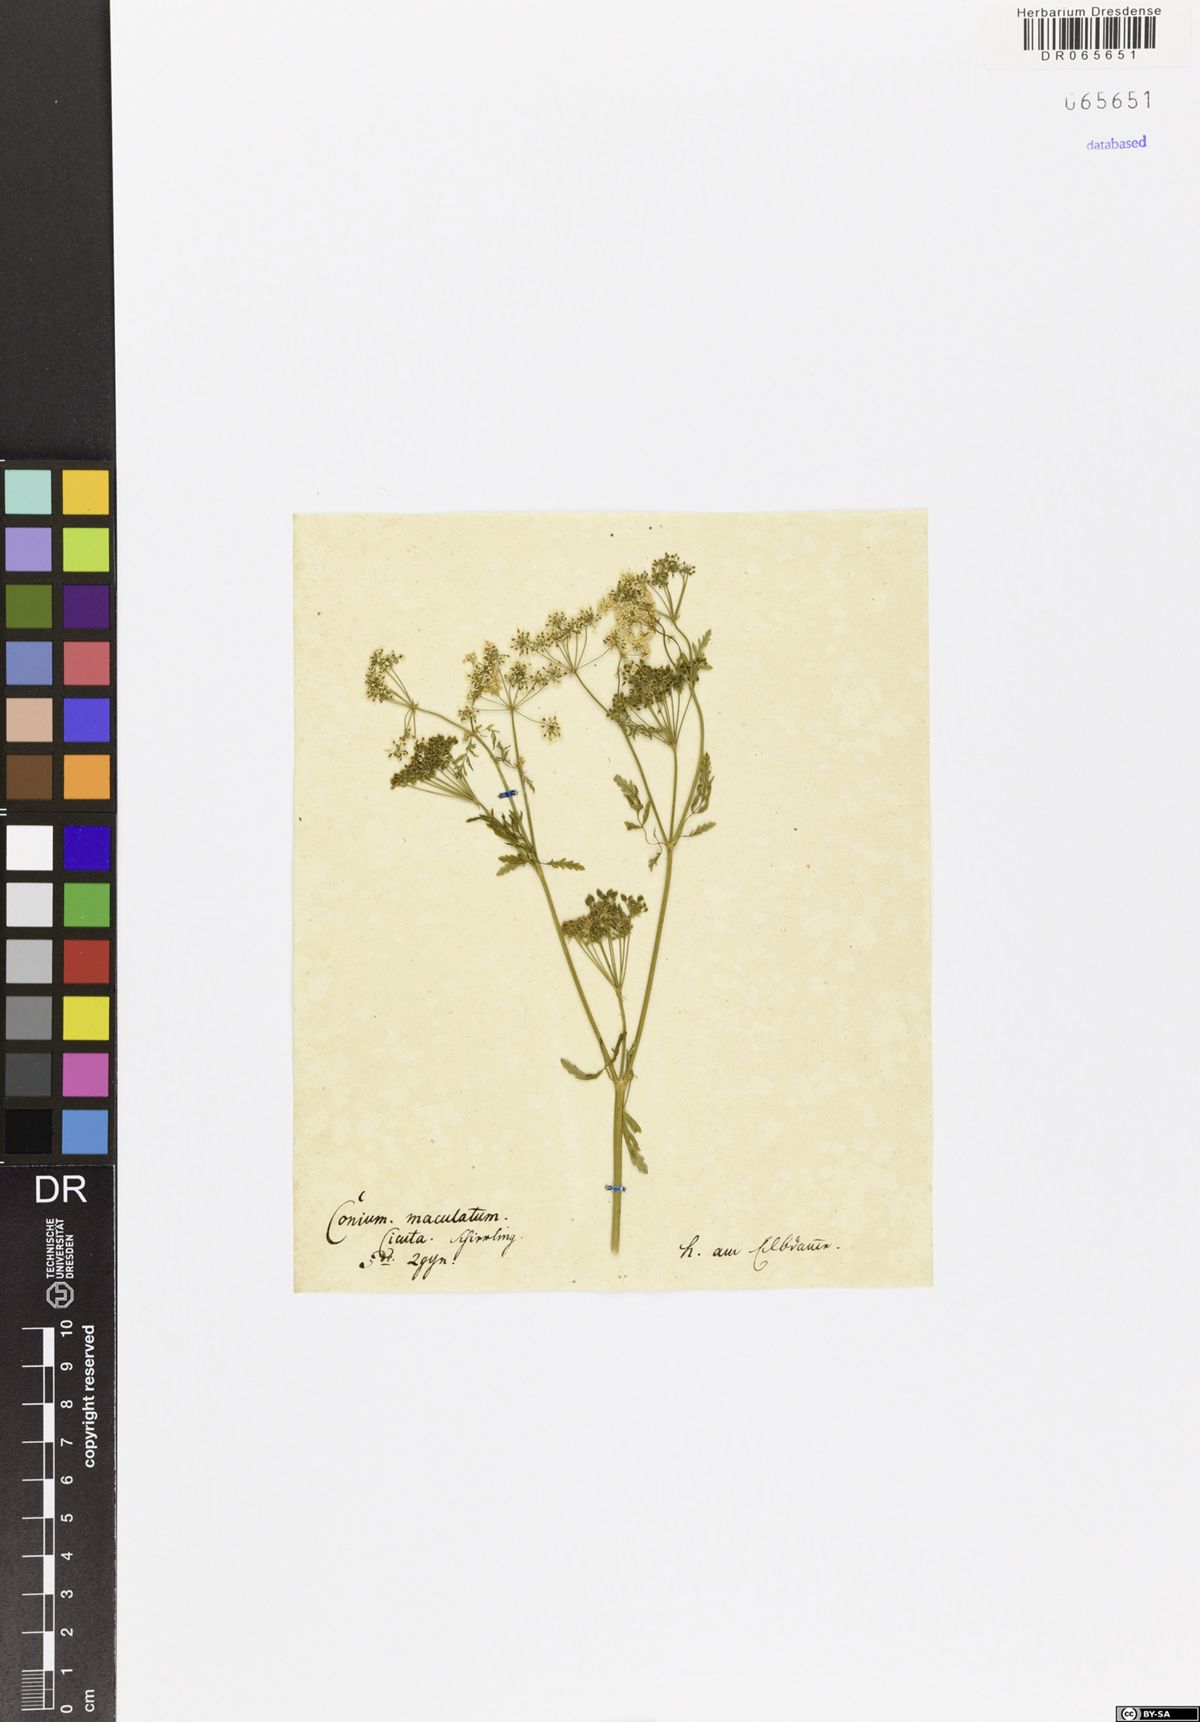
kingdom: Plantae
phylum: Tracheophyta
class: Magnoliopsida
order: Apiales
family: Apiaceae
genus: Conium
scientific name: Conium maculatum
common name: Hemlock
